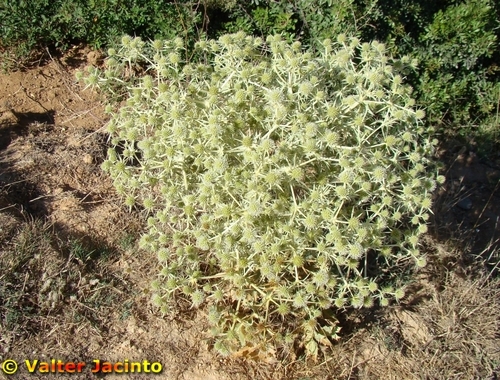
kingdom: Plantae
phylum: Tracheophyta
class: Magnoliopsida
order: Apiales
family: Apiaceae
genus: Eryngium
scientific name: Eryngium campestre
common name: Field eryngo
